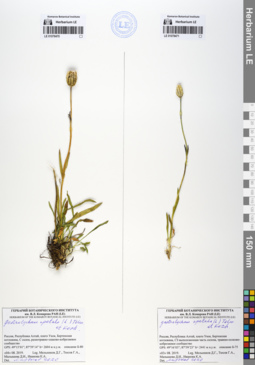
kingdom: Plantae
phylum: Tracheophyta
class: Magnoliopsida
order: Caryophyllales
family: Caryophyllaceae
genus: Silene
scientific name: Silene wahlbergella
